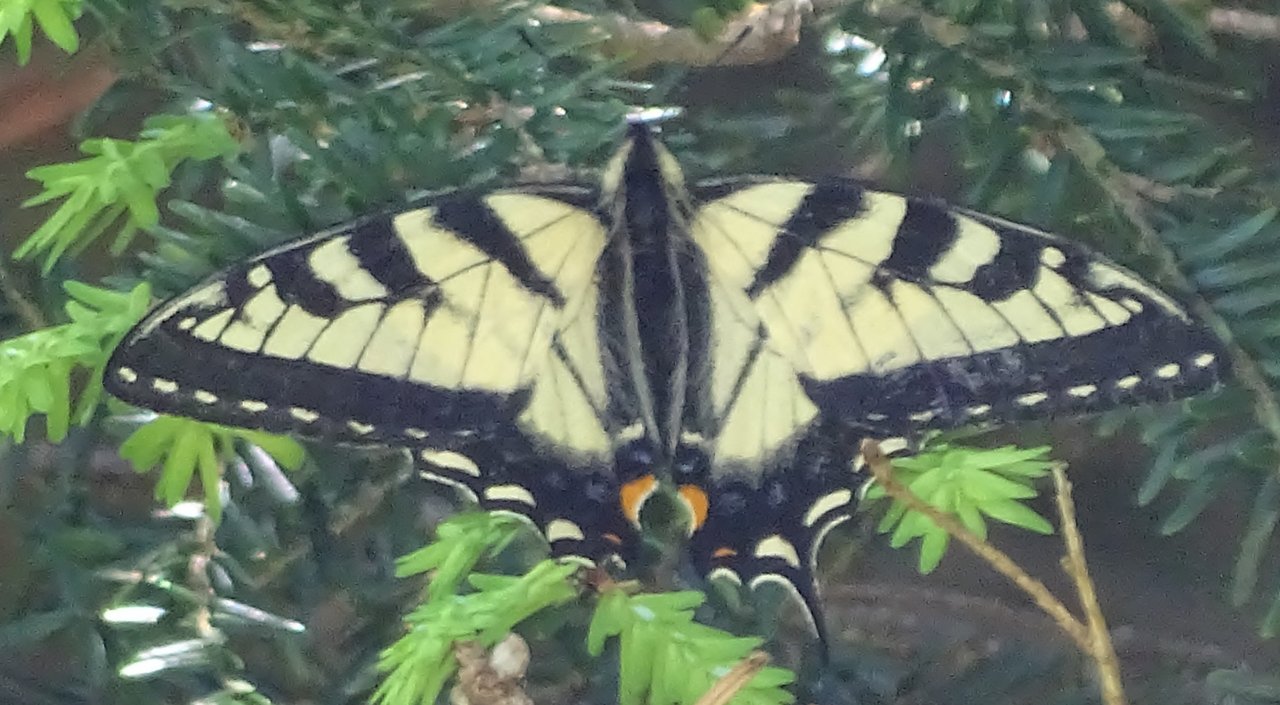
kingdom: Animalia
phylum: Arthropoda
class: Insecta
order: Lepidoptera
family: Papilionidae
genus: Pterourus
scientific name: Pterourus canadensis
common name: Canadian Tiger Swallowtail
